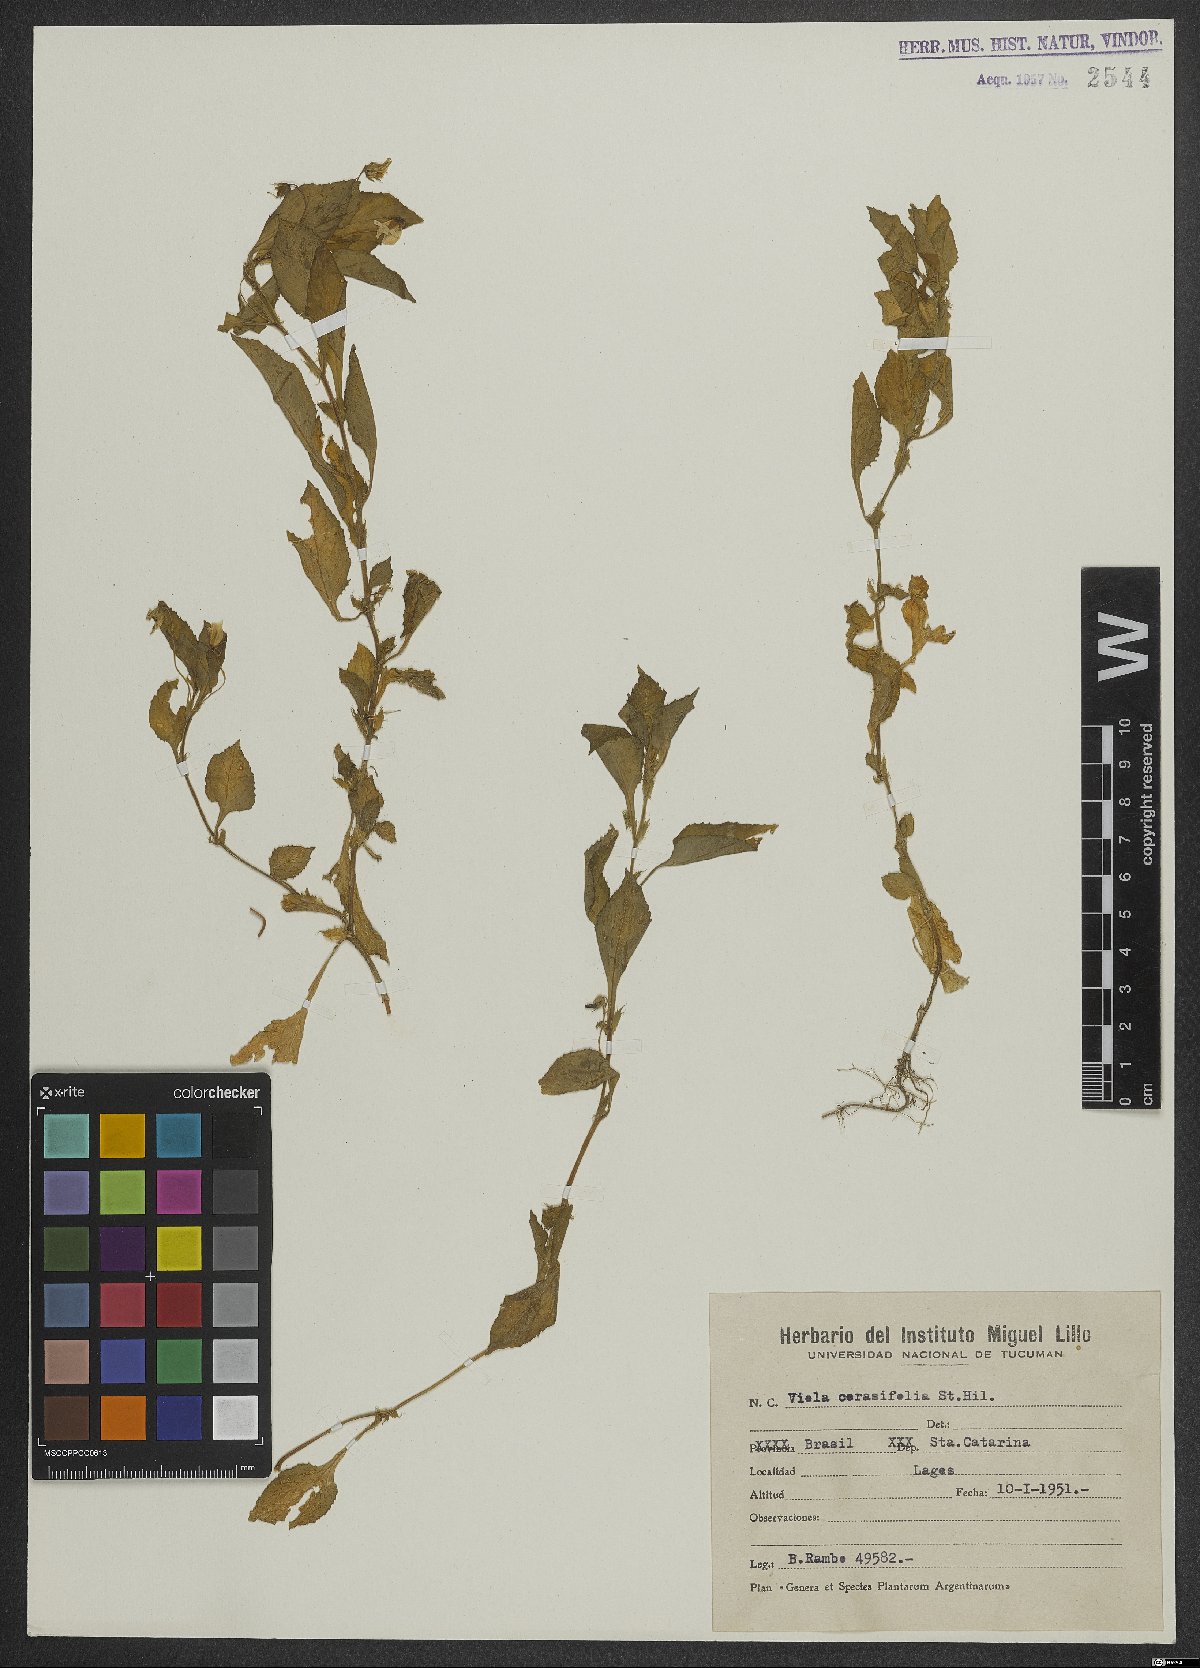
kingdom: Plantae
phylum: Tracheophyta
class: Magnoliopsida
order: Malpighiales
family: Violaceae
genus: Viola
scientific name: Viola cerasifolia
